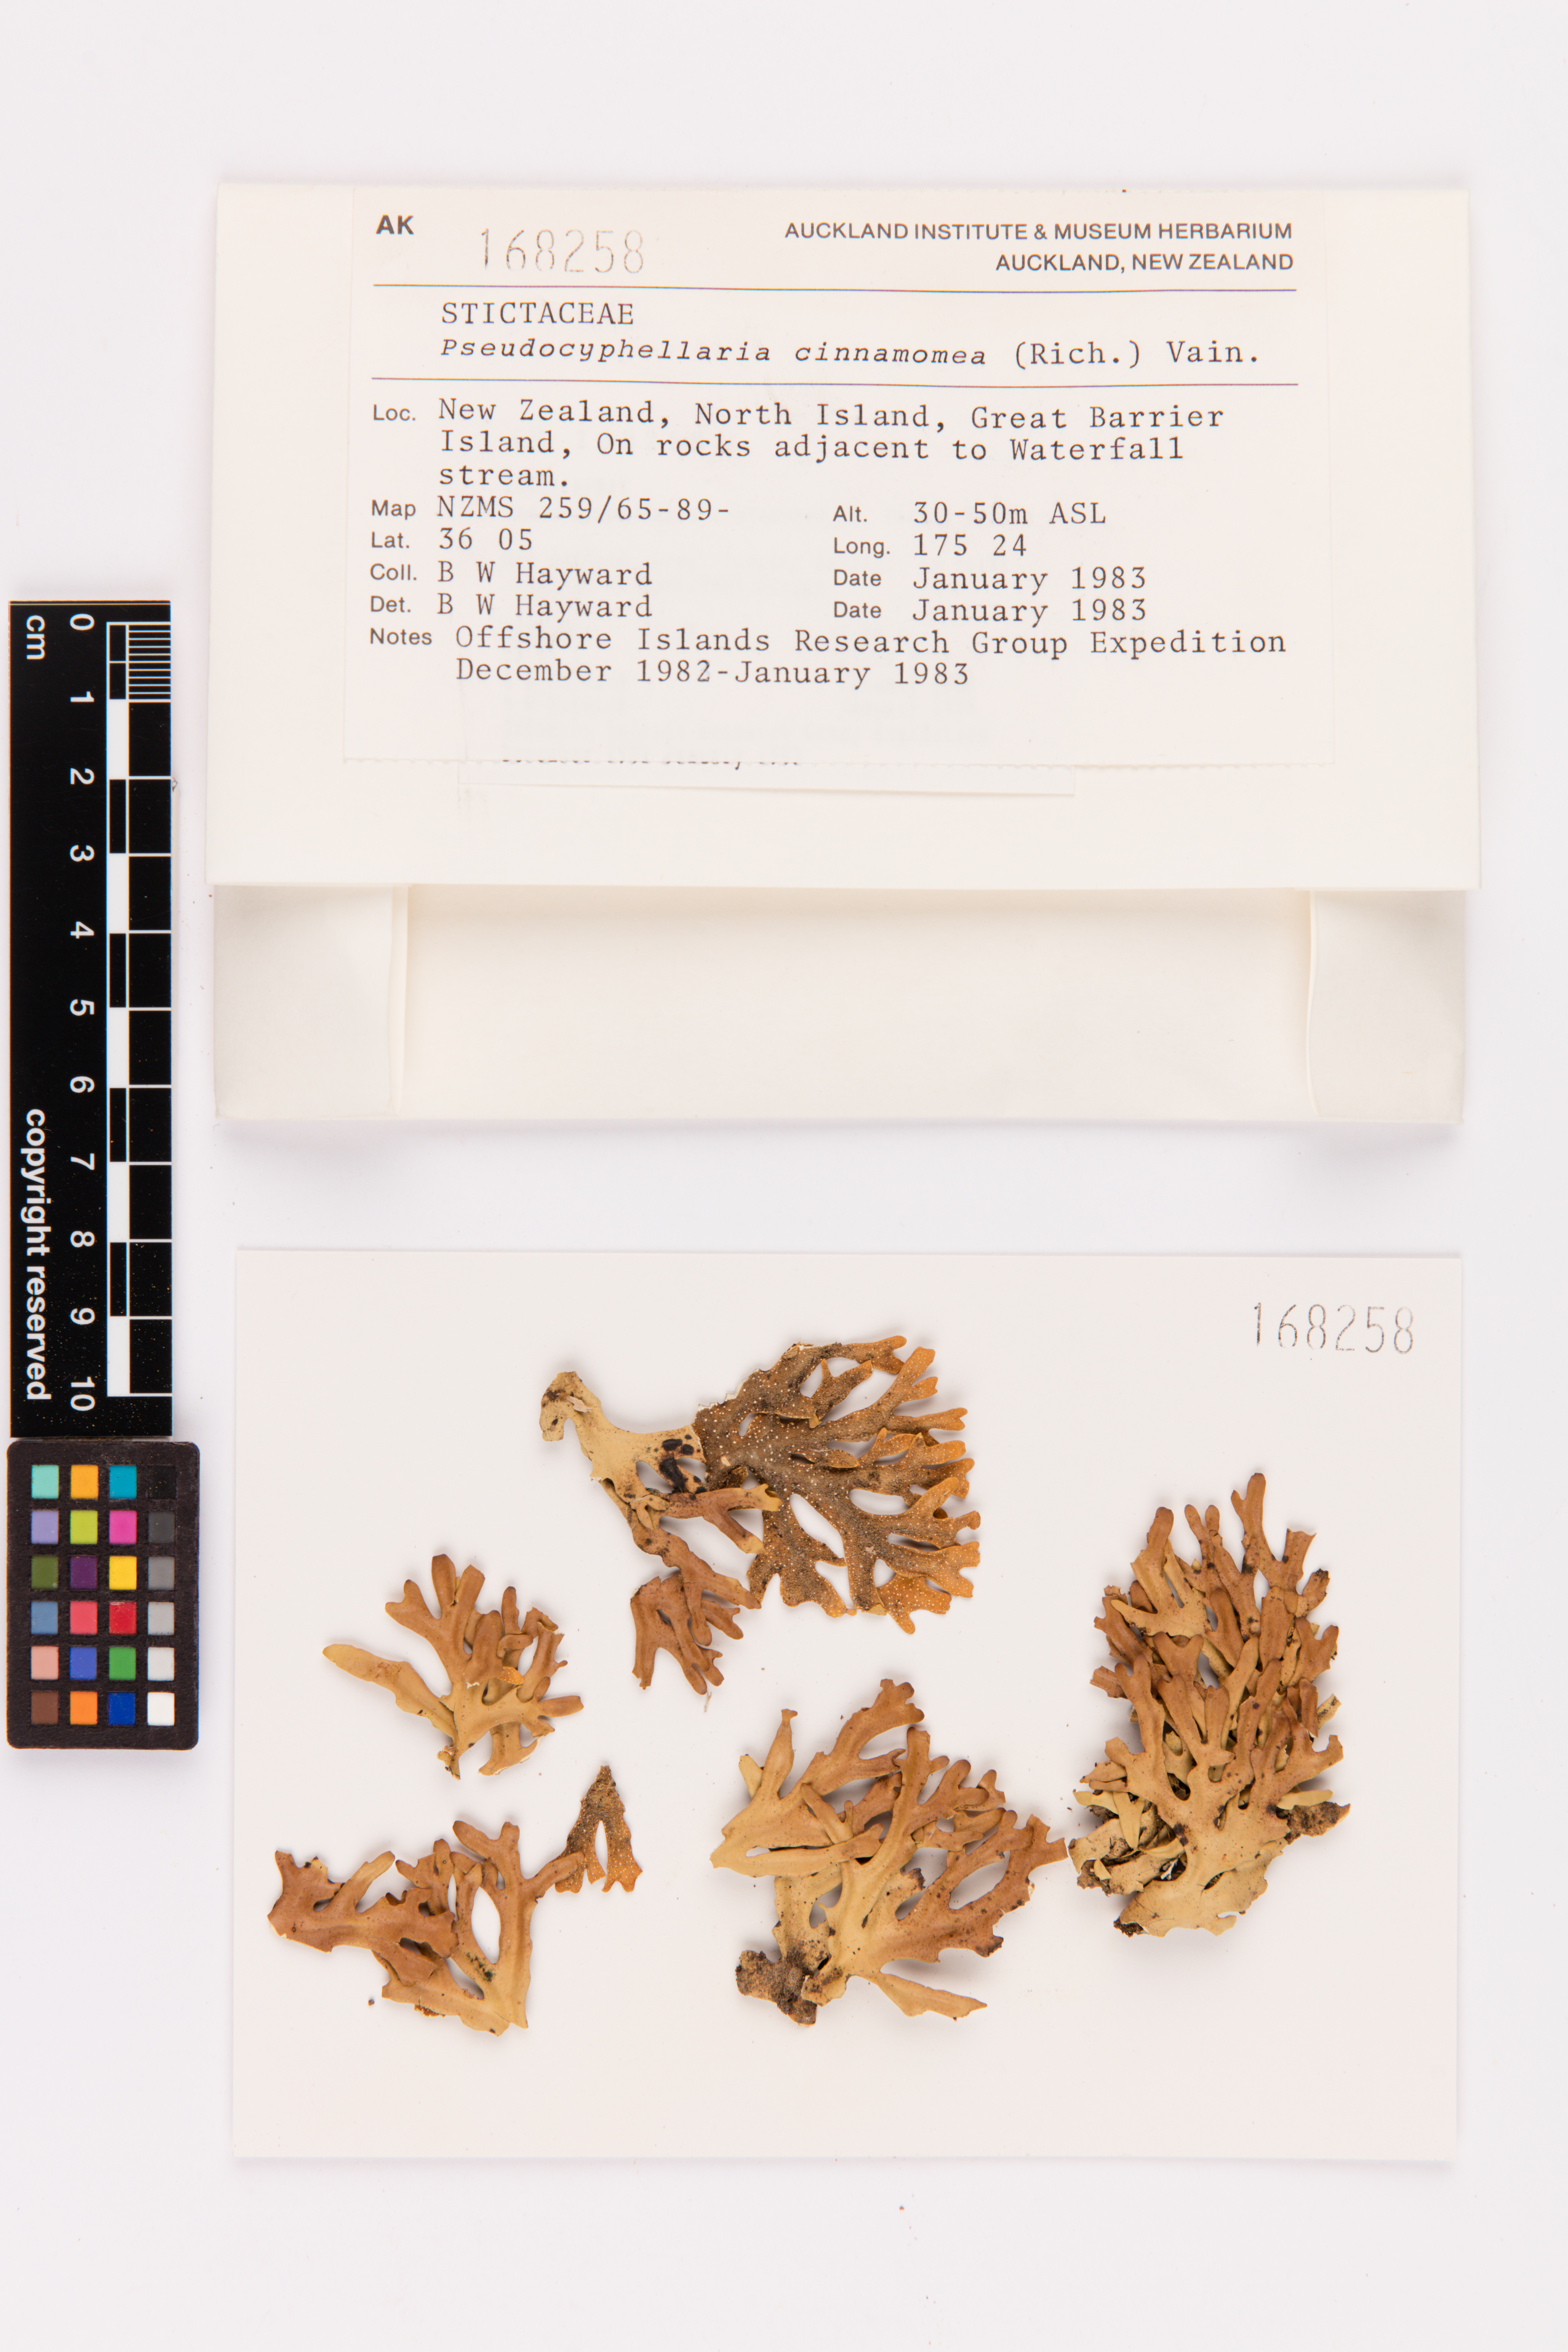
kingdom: Fungi
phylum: Ascomycota
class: Lecanoromycetes
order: Peltigerales
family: Lobariaceae
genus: Pseudocyphellaria
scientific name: Pseudocyphellaria cinnamomea
